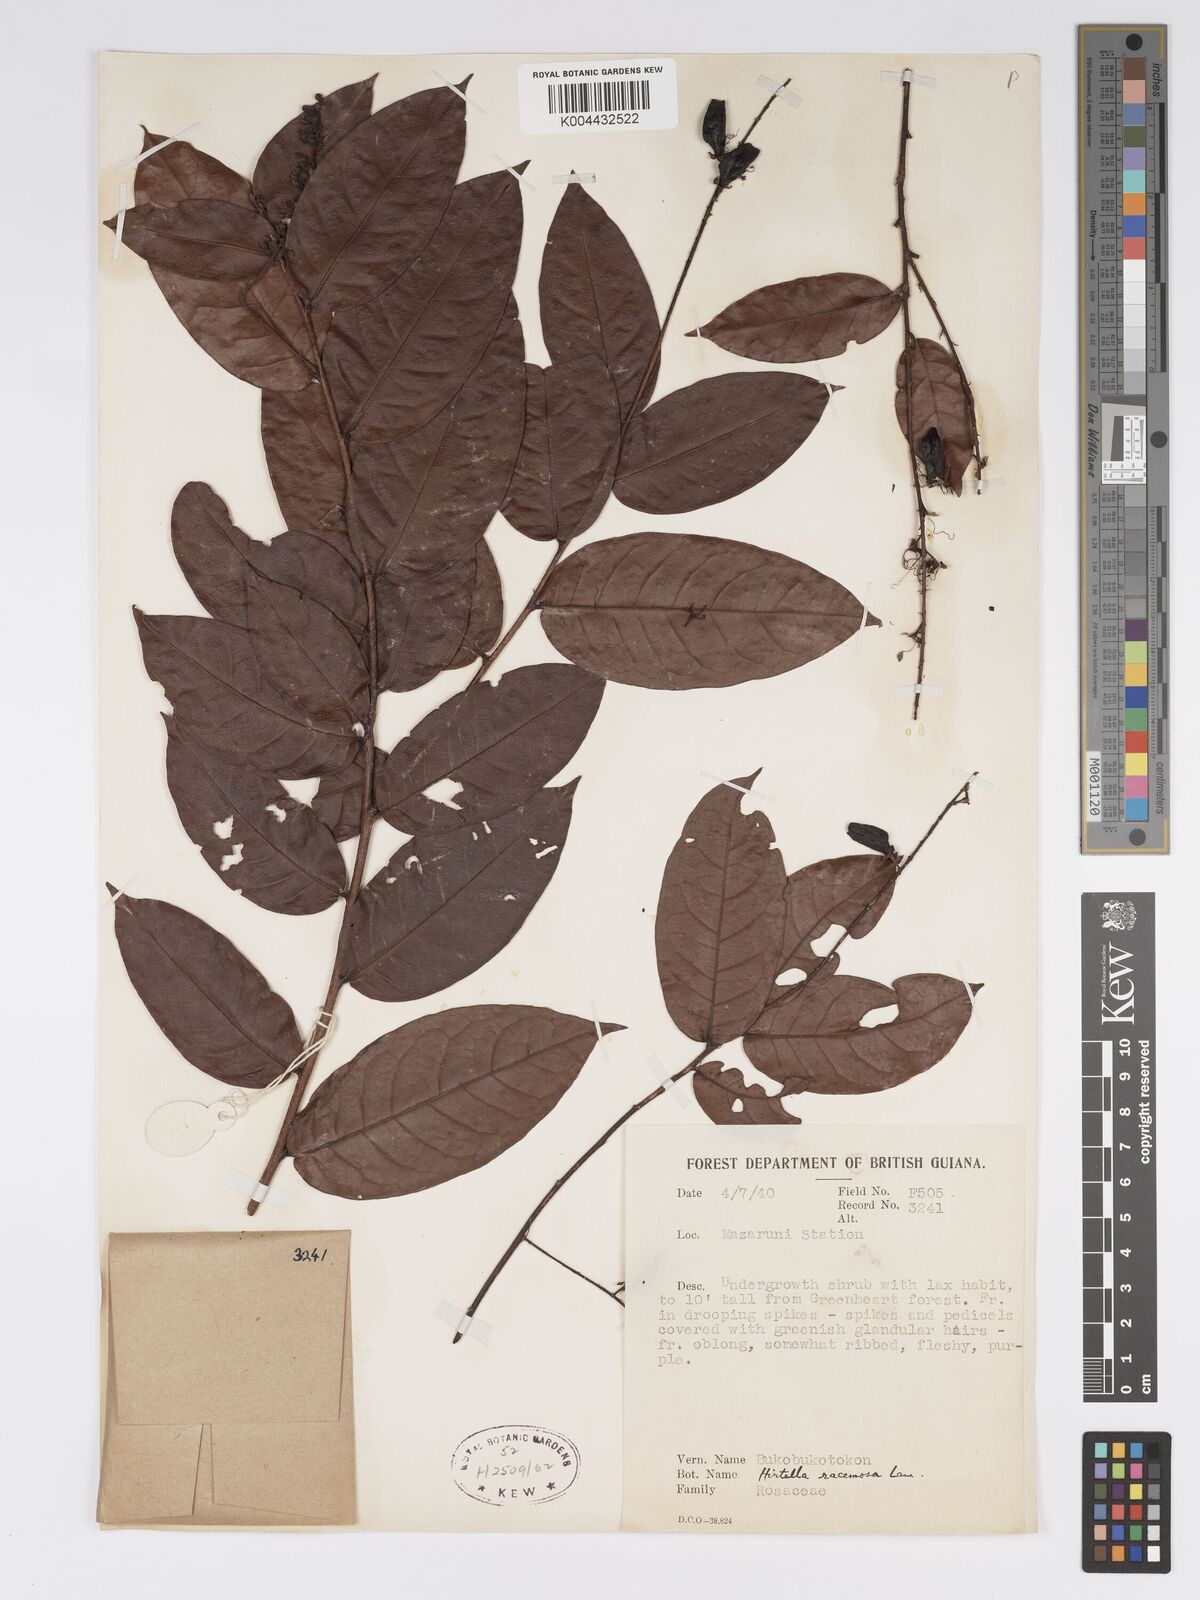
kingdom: Plantae
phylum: Tracheophyta
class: Magnoliopsida
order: Malpighiales
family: Chrysobalanaceae
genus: Hirtella
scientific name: Hirtella
